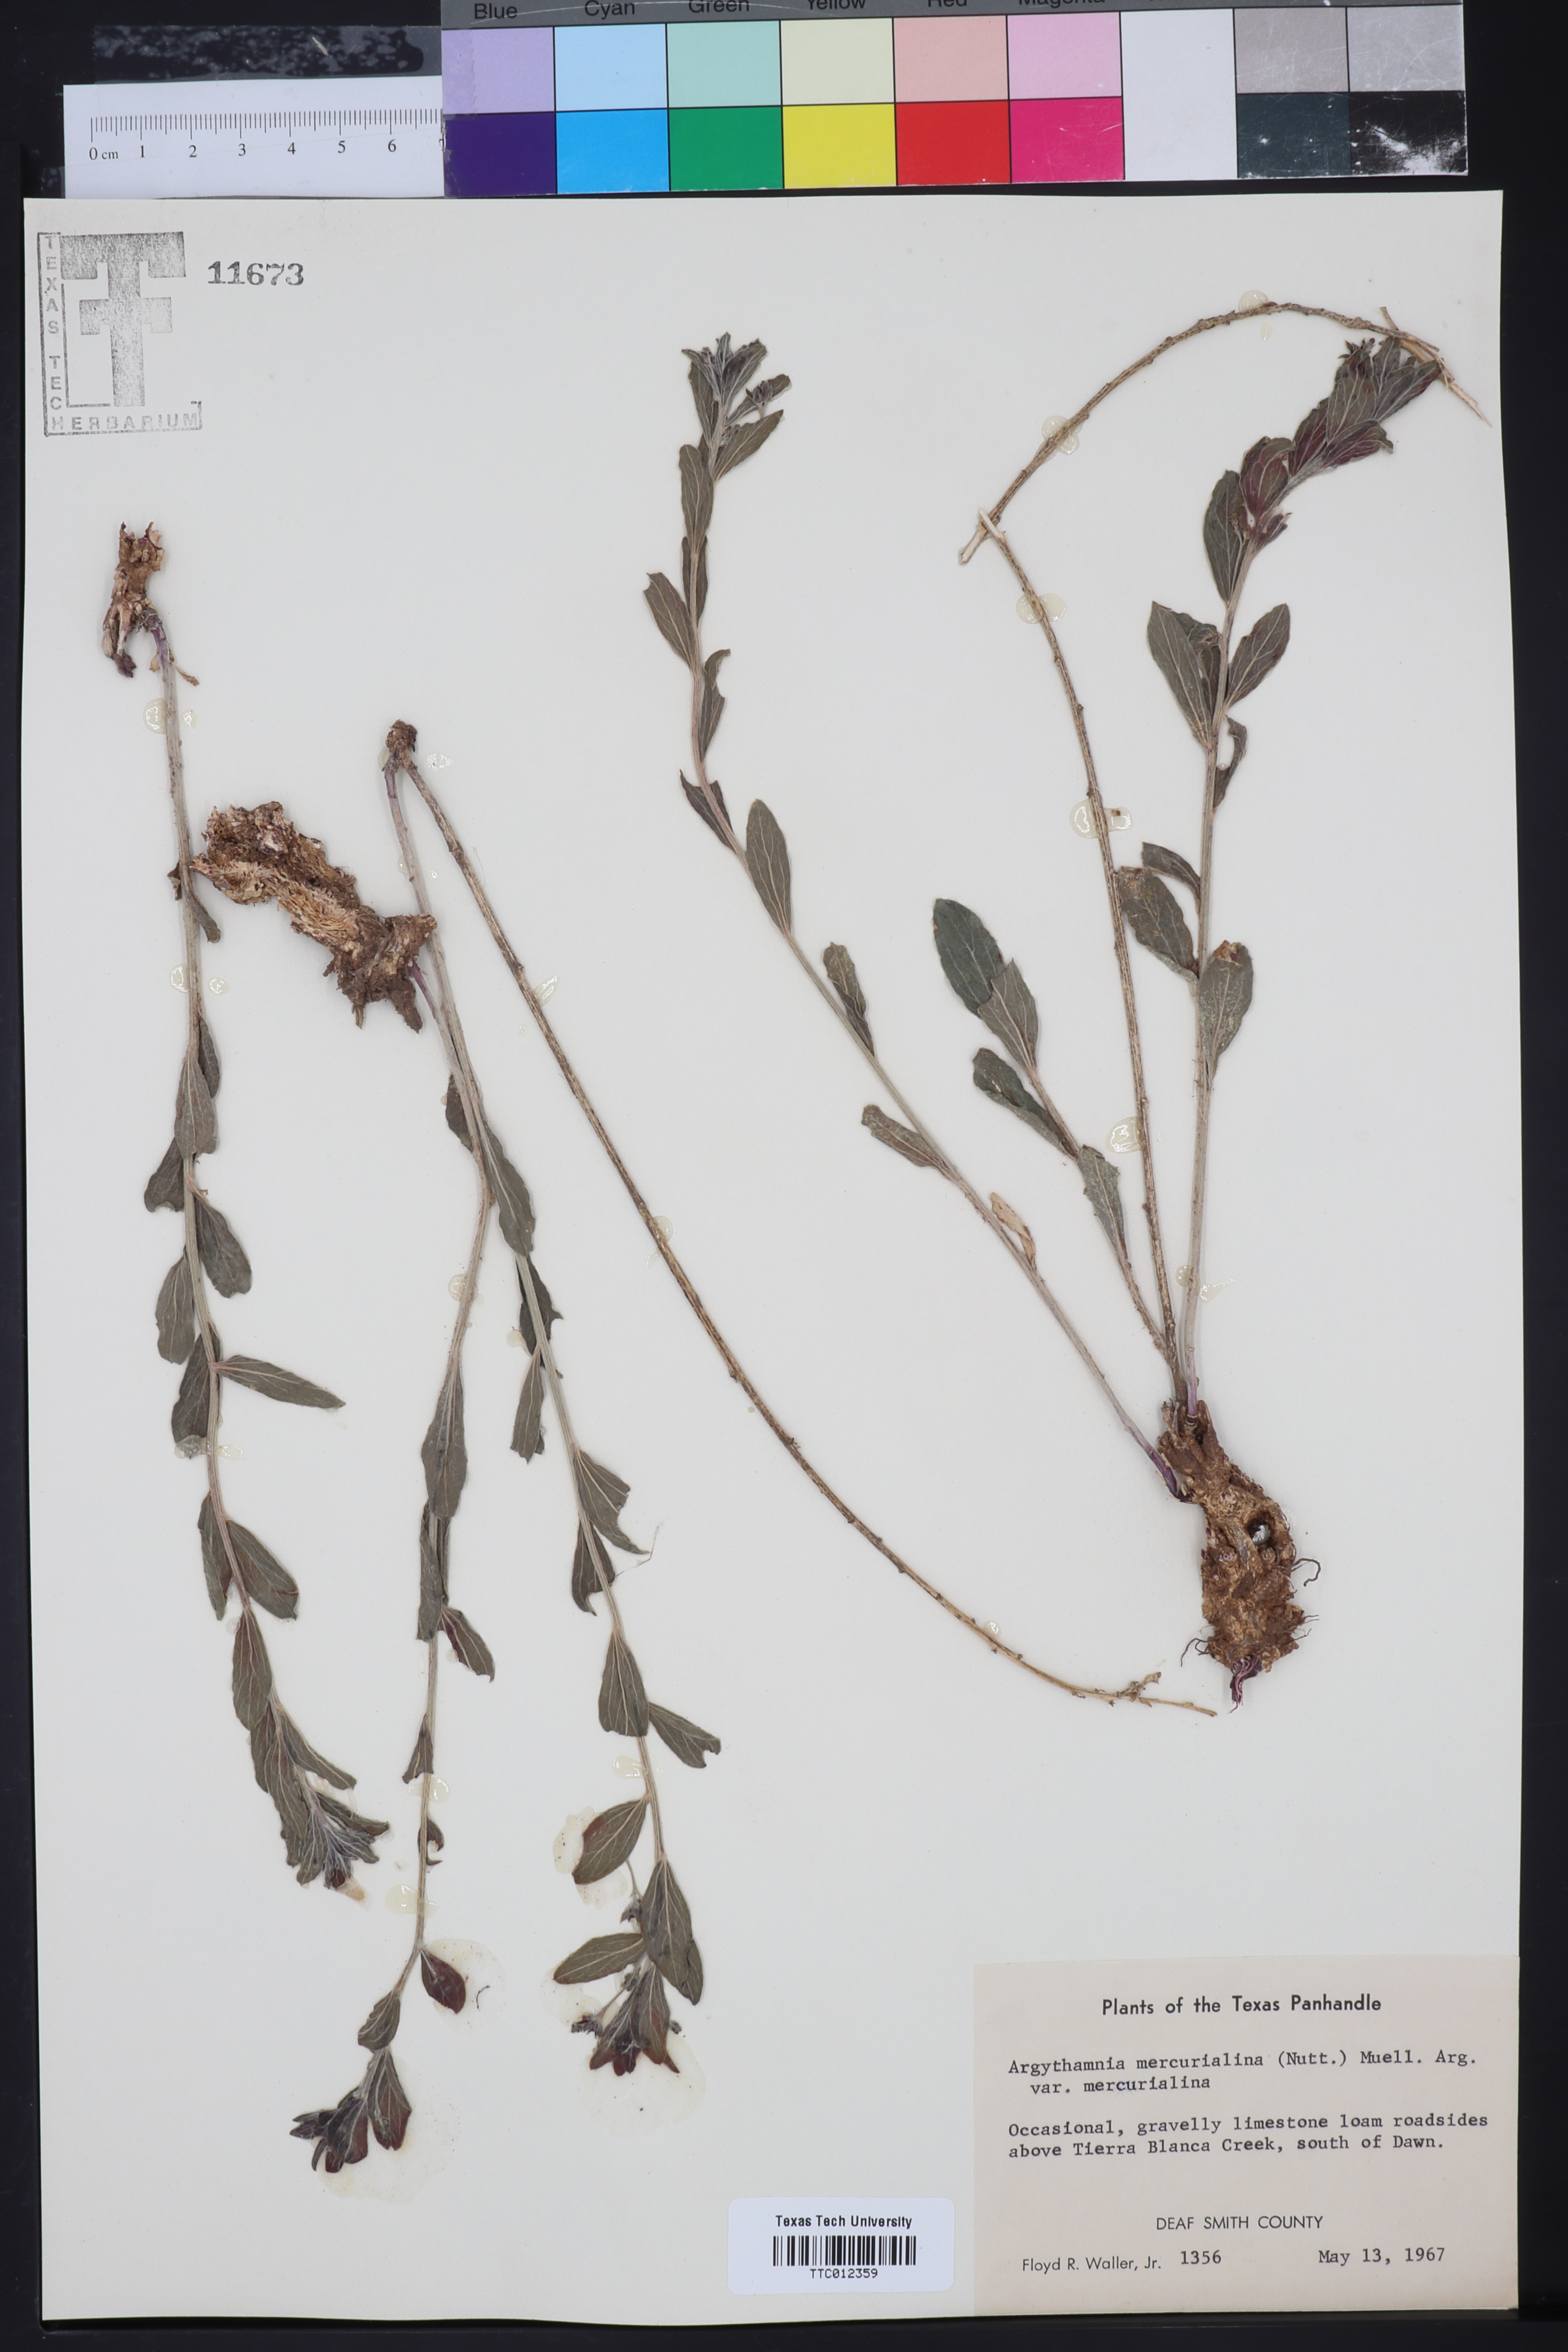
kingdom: Plantae
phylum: Tracheophyta
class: Magnoliopsida
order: Malpighiales
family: Euphorbiaceae
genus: Ditaxis
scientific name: Ditaxis mercurialina
